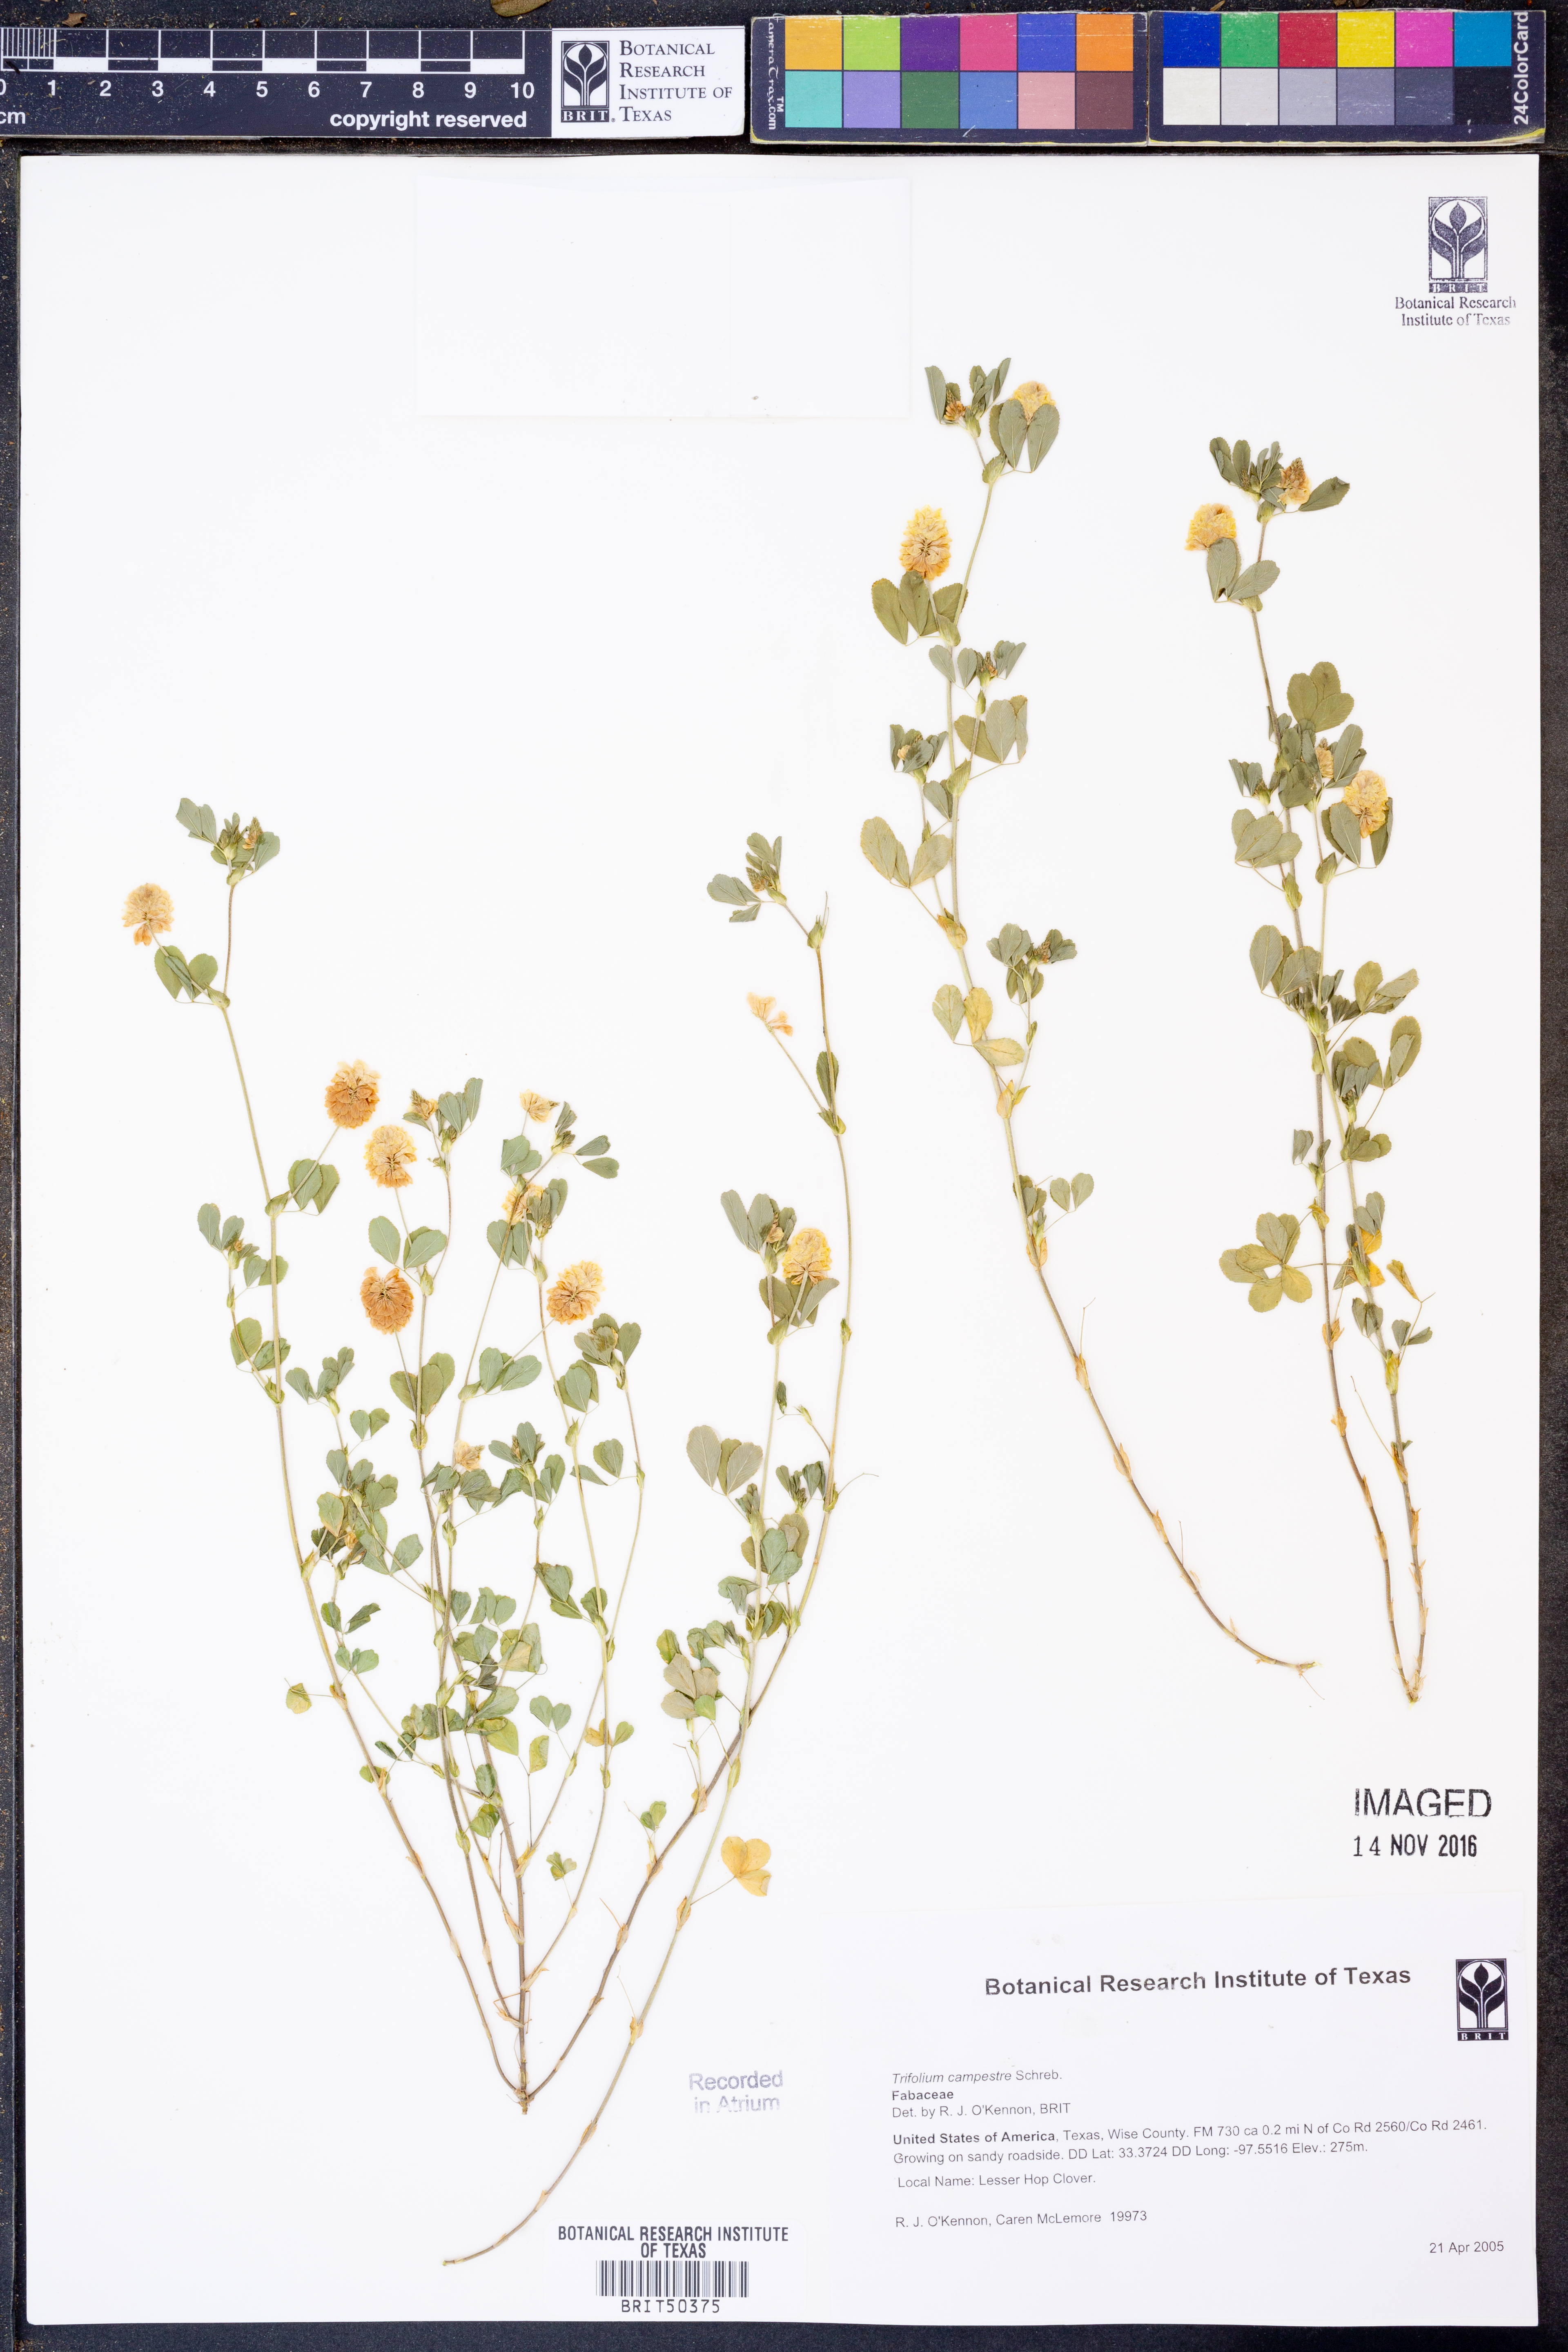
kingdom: Plantae
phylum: Tracheophyta
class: Magnoliopsida
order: Fabales
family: Fabaceae
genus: Trifolium
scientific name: Trifolium campestre
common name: Field clover
